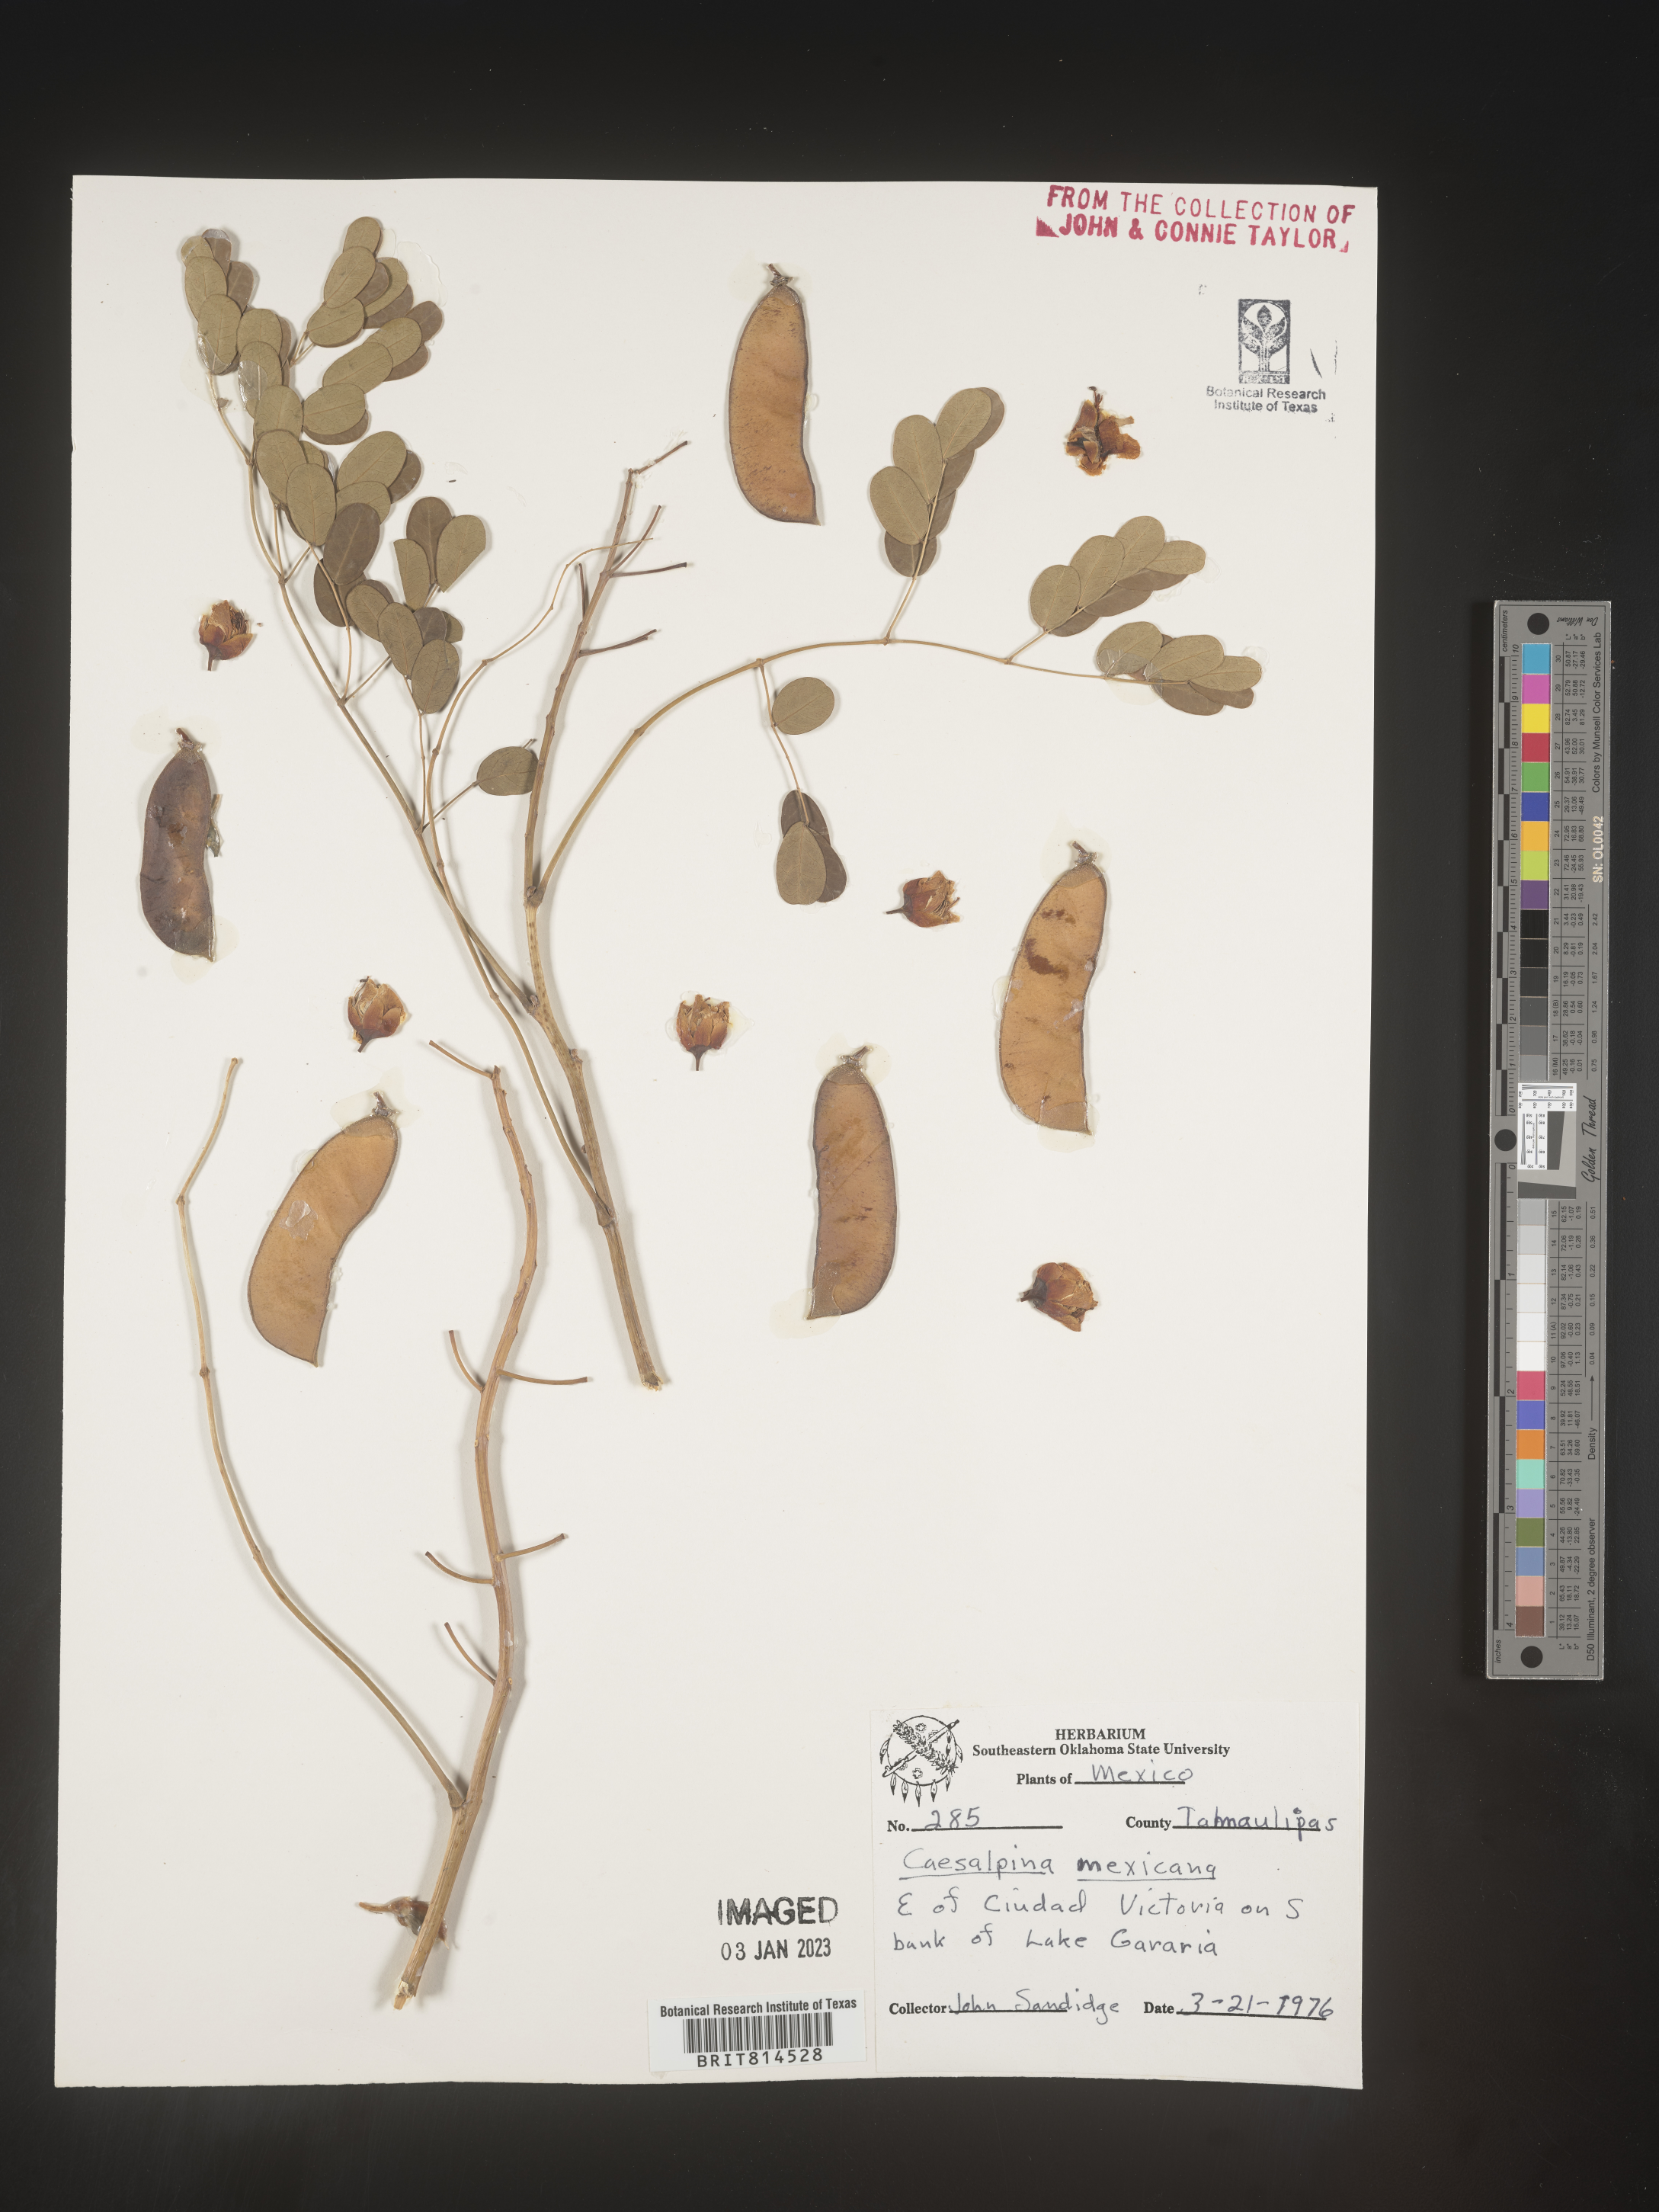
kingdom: Plantae
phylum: Tracheophyta
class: Magnoliopsida
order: Fabales
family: Fabaceae
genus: Caesalpinia
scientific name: Caesalpinia
